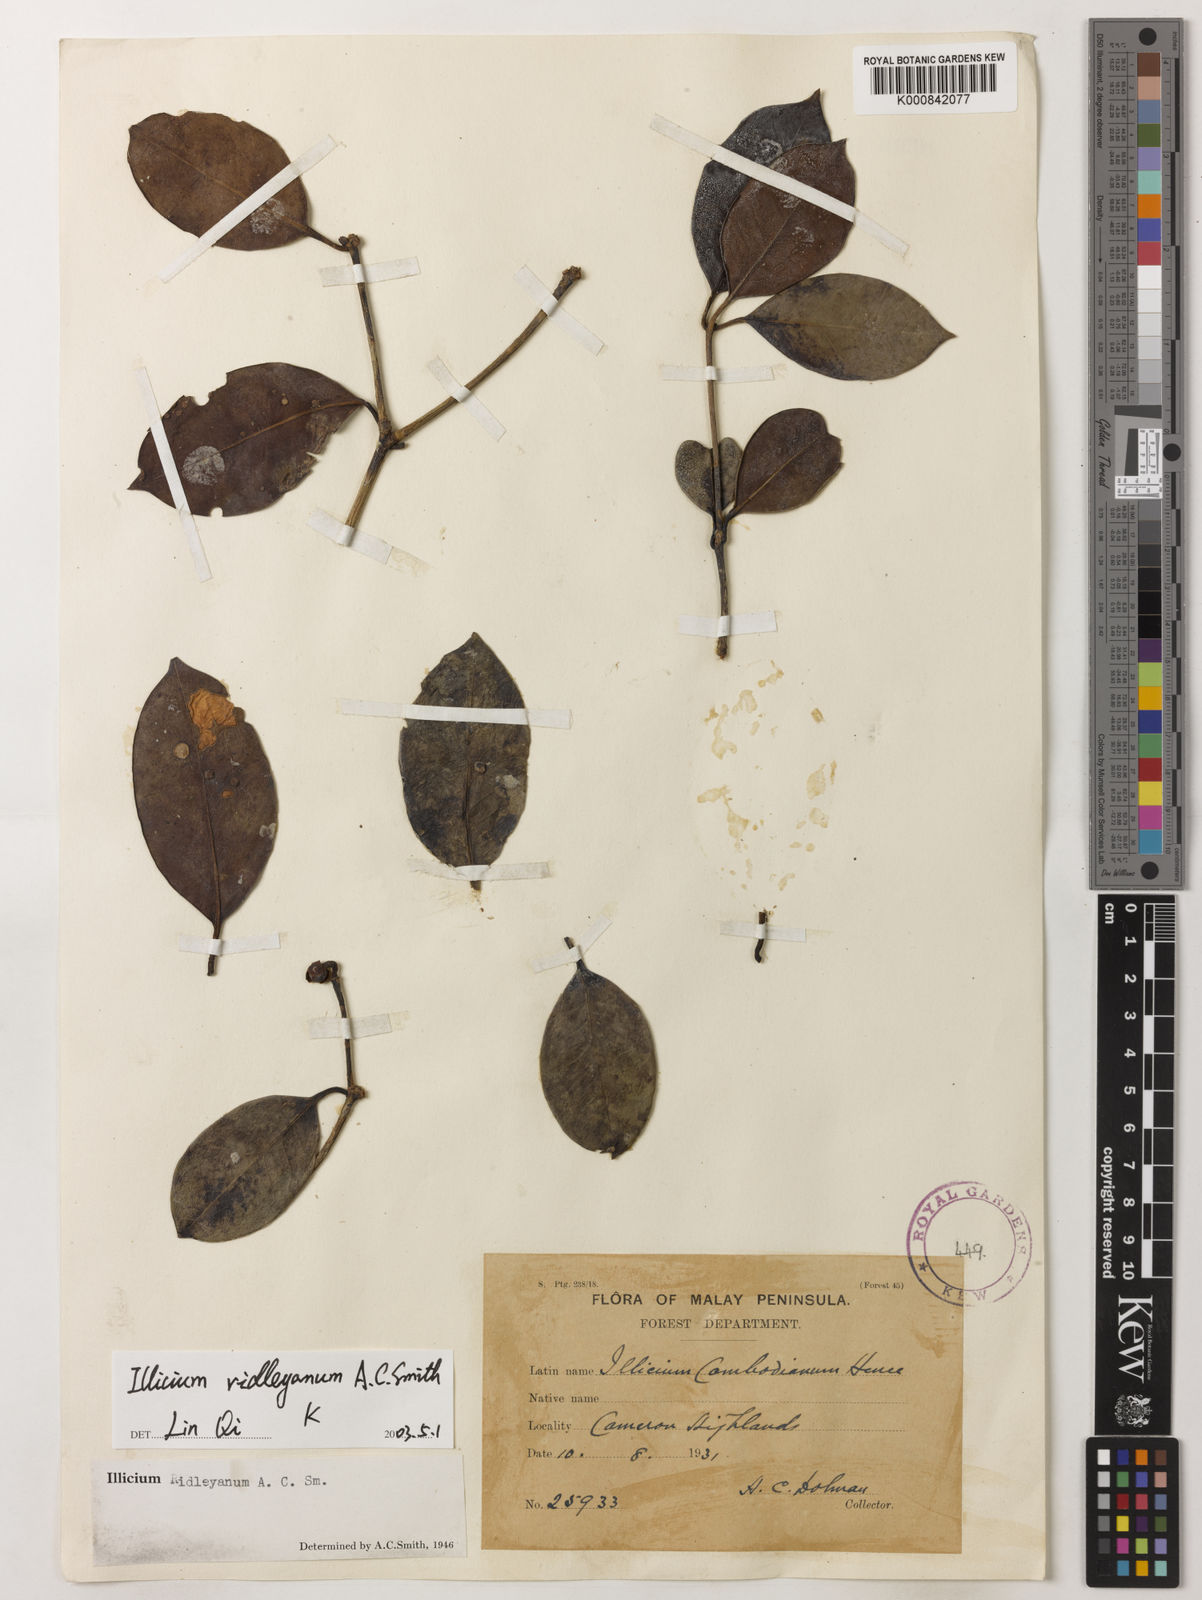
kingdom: Plantae
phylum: Tracheophyta
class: Magnoliopsida
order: Austrobaileyales
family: Schisandraceae
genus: Illicium
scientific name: Illicium ridleyanum
